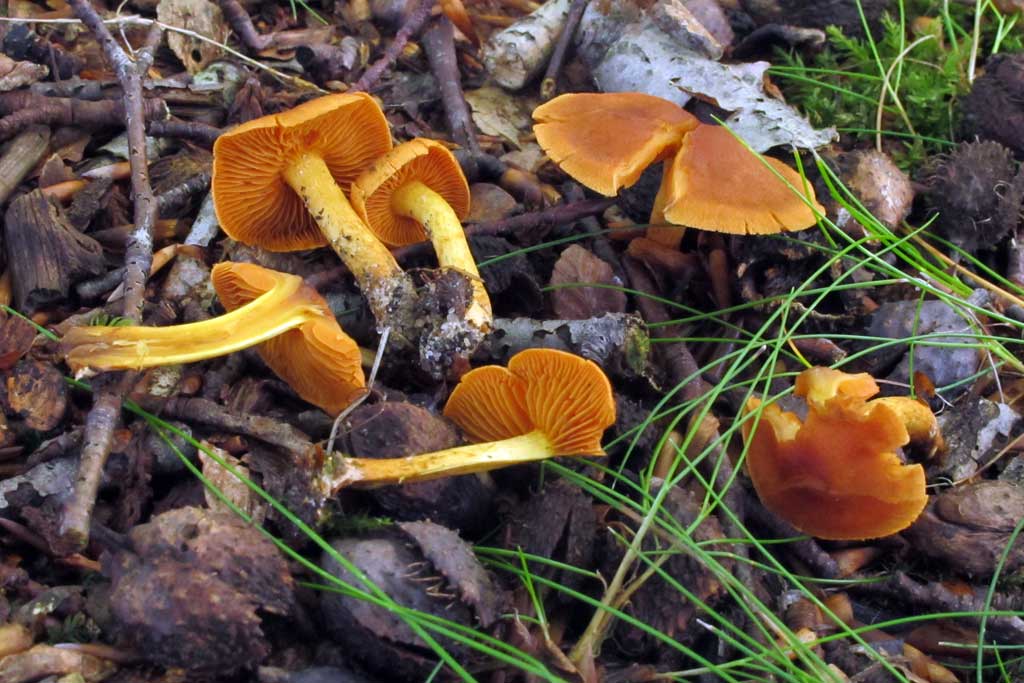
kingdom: Fungi
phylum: Basidiomycota
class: Agaricomycetes
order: Agaricales
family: Cortinariaceae
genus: Cortinarius
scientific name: Cortinarius cinnamomeus
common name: kanel-slørhat
